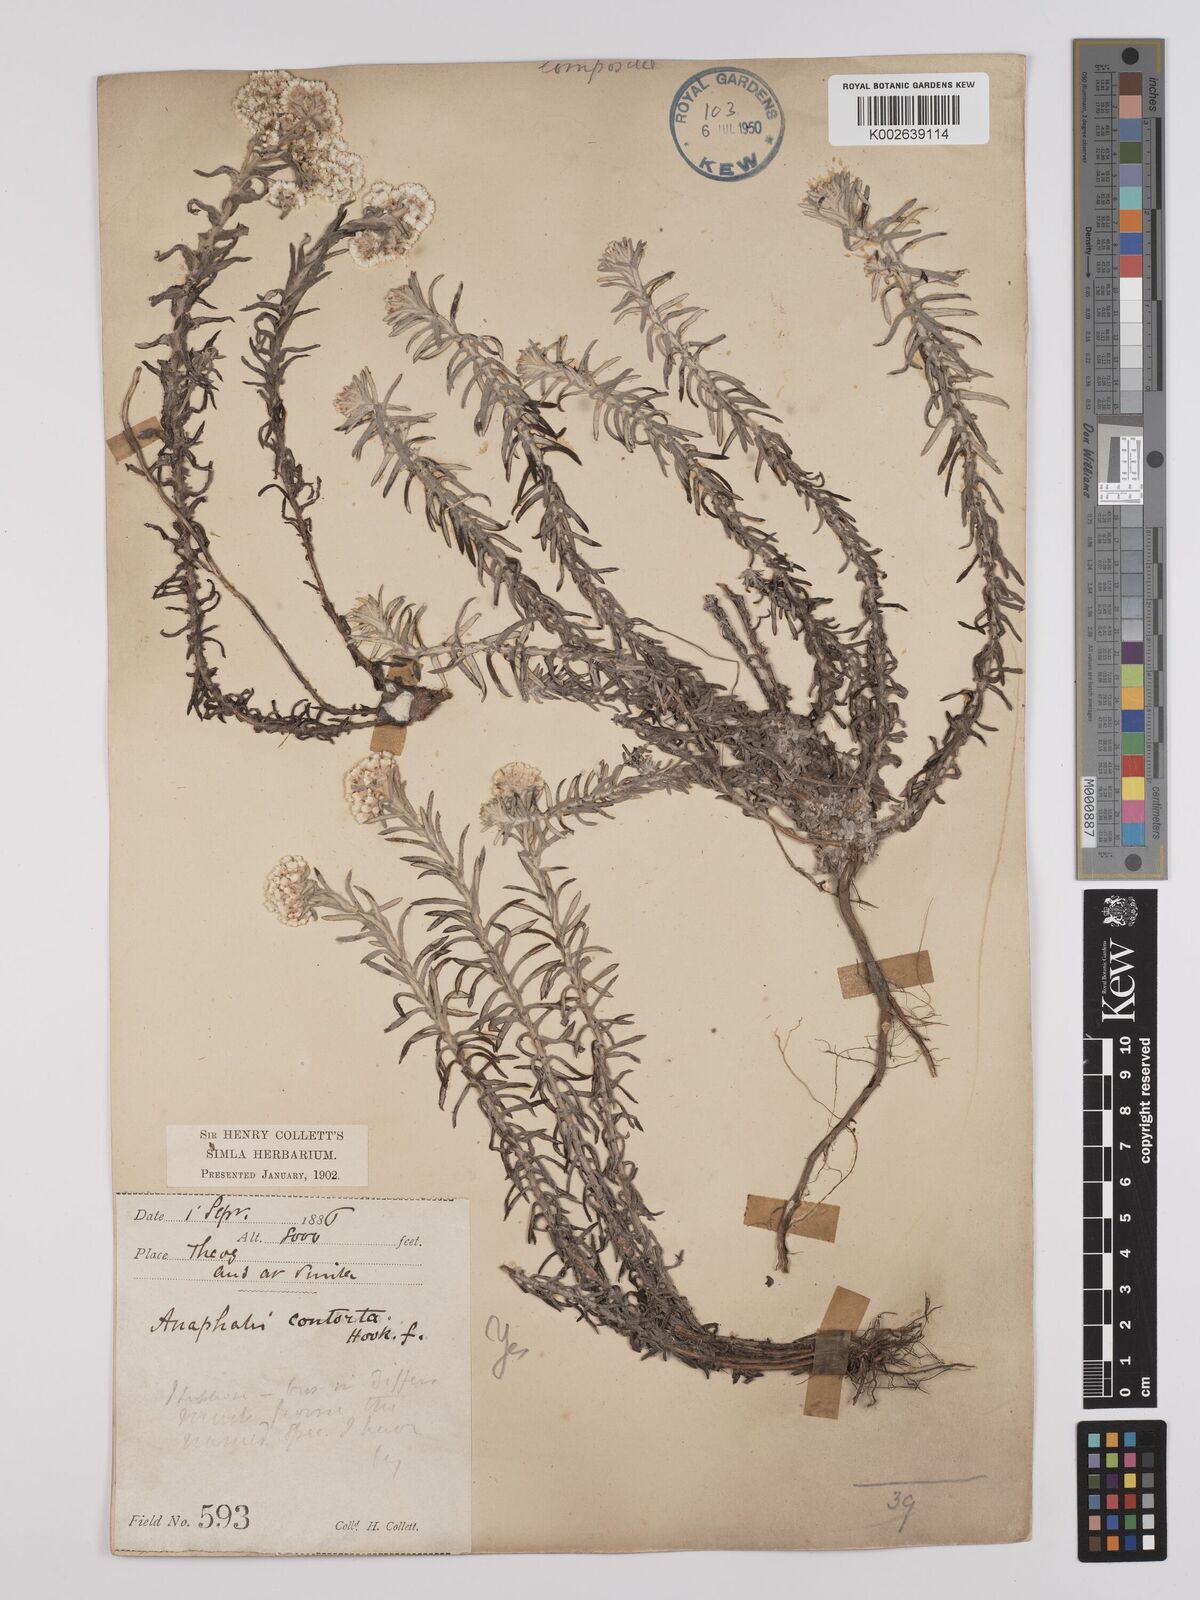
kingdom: Plantae
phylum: Tracheophyta
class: Magnoliopsida
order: Asterales
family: Asteraceae
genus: Anaphalis
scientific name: Anaphalis contorta
